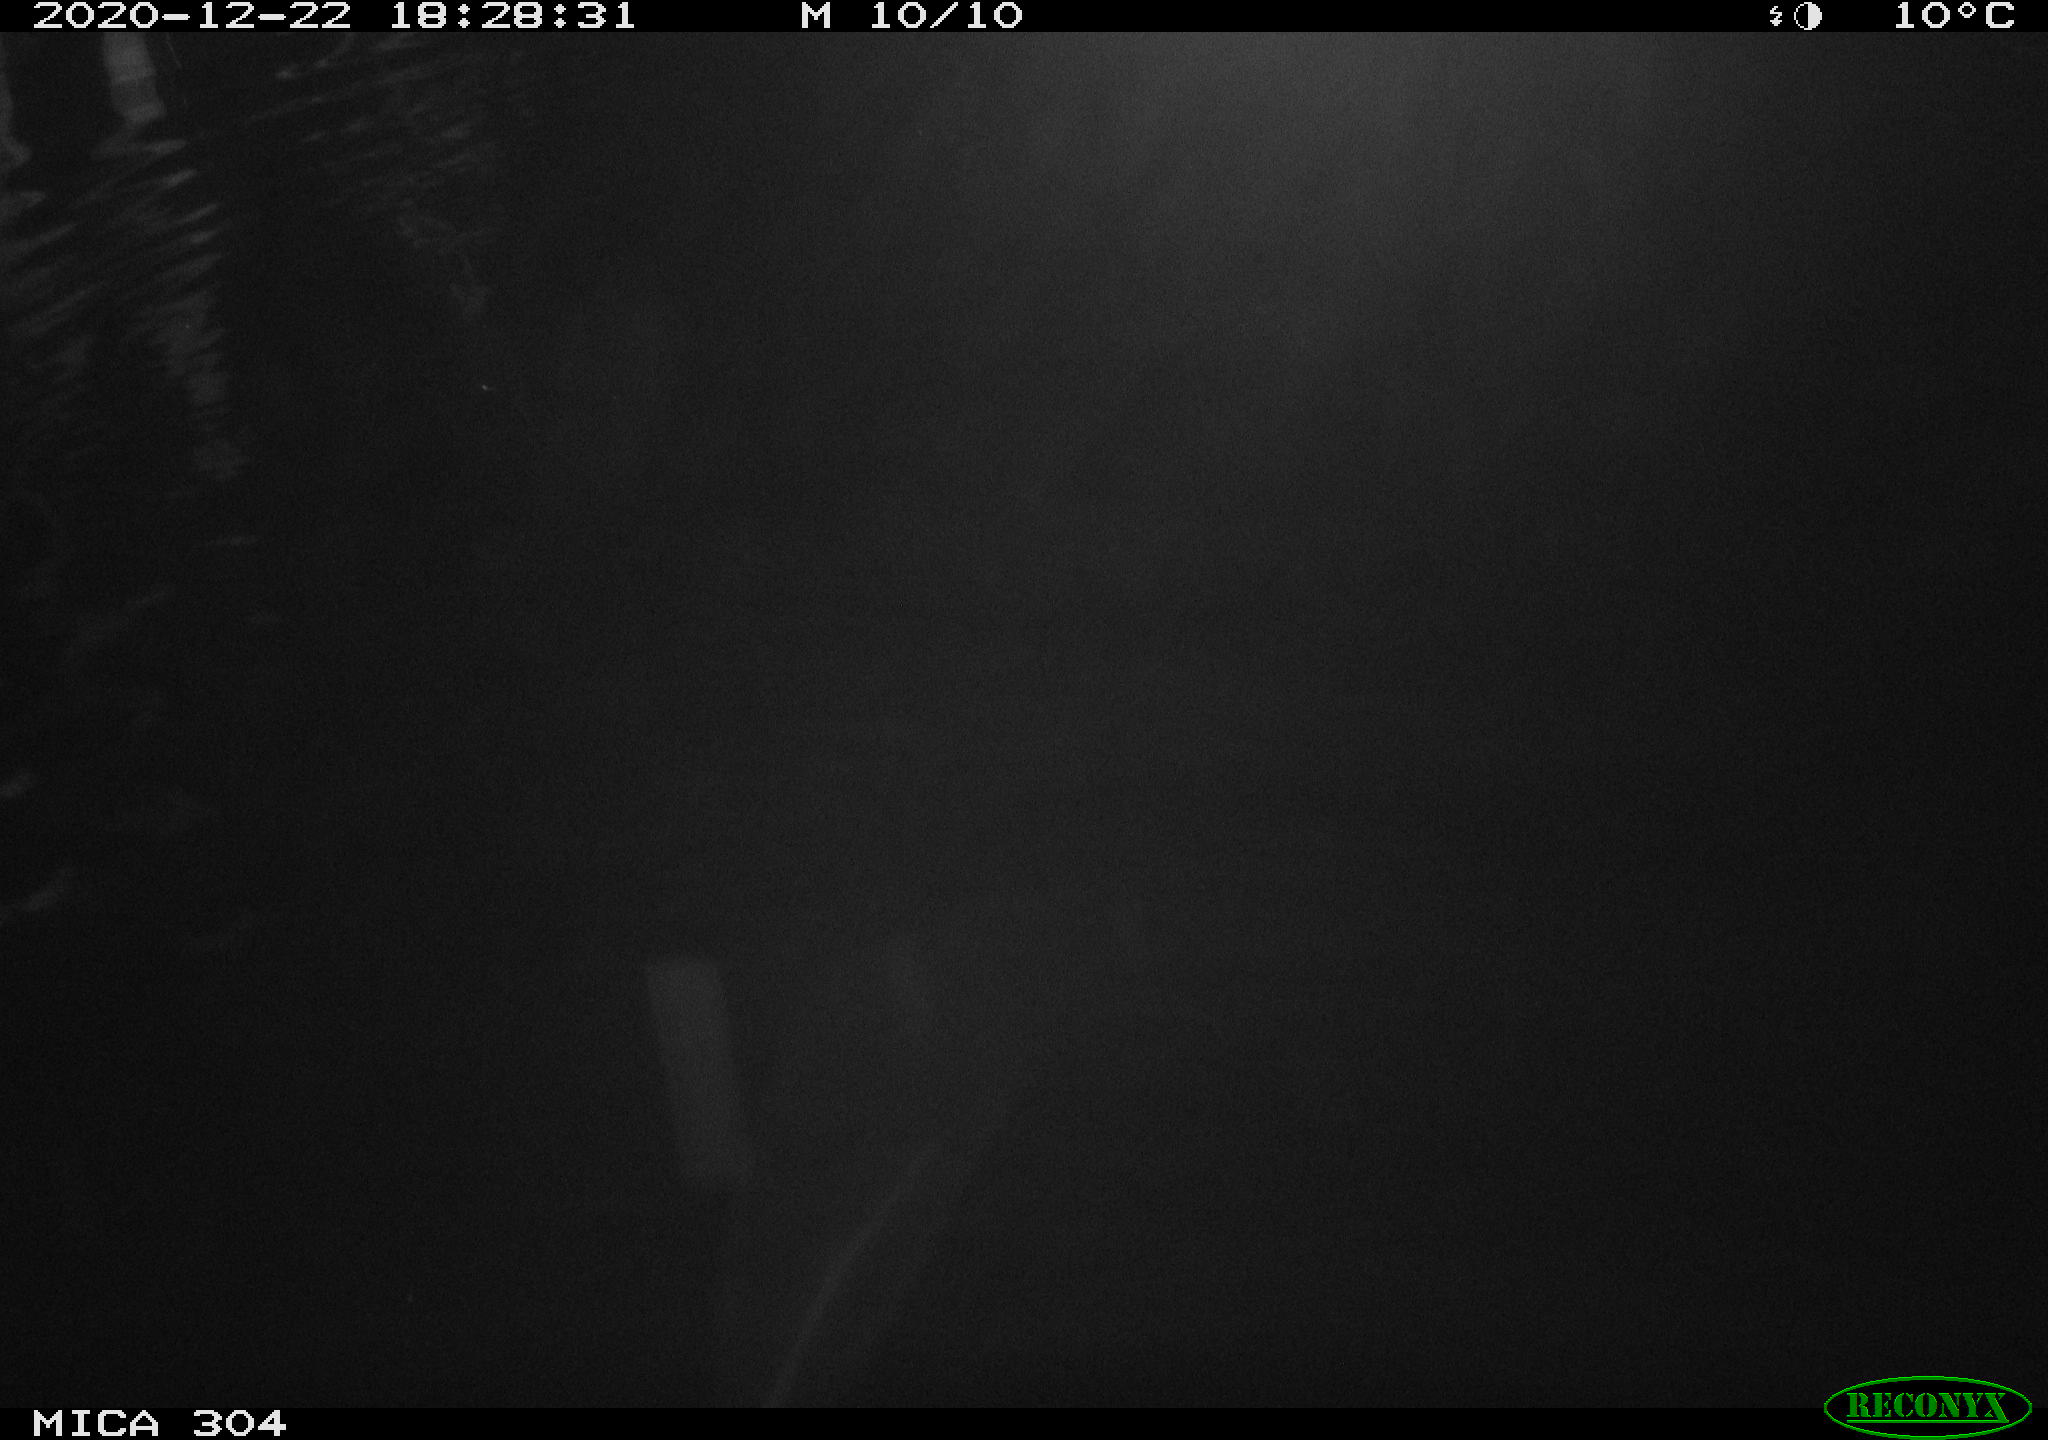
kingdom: Animalia
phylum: Chordata
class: Mammalia
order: Rodentia
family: Cricetidae
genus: Ondatra
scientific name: Ondatra zibethicus
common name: Muskrat
